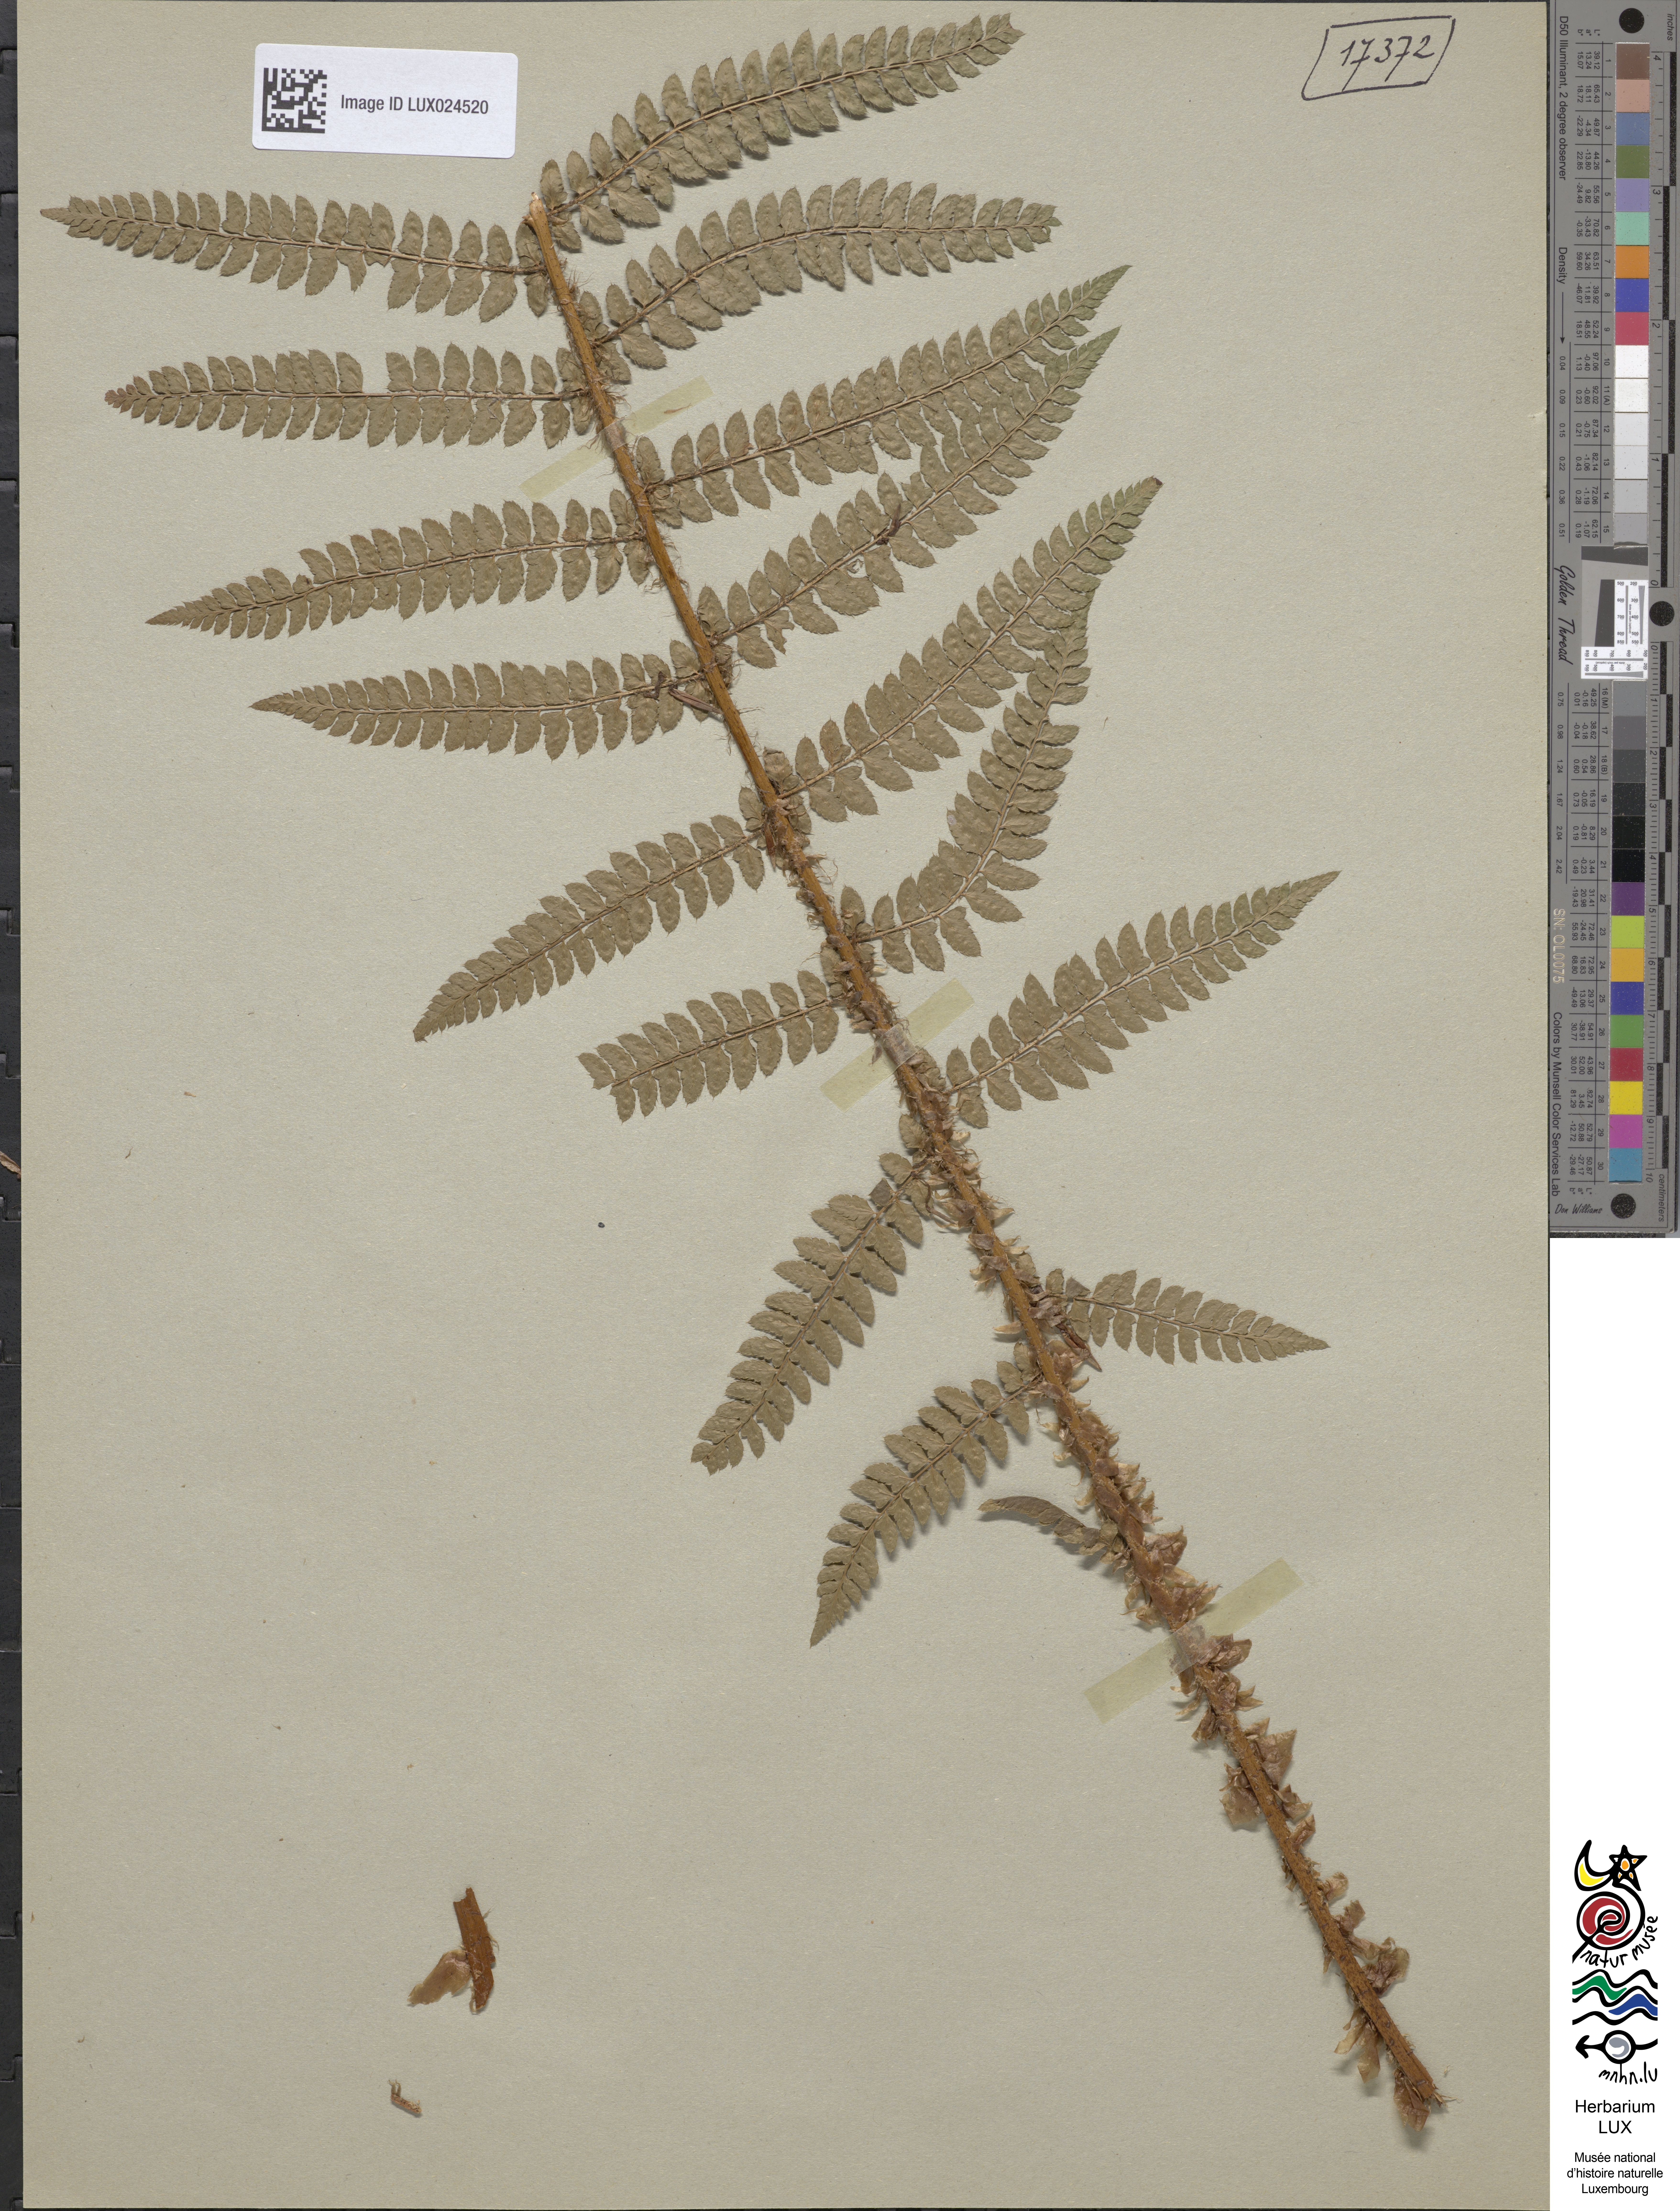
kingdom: Plantae
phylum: Tracheophyta
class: Polypodiopsida
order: Polypodiales
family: Dryopteridaceae
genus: Polystichum
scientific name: Polystichum setiferum
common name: Soft shield-fern
